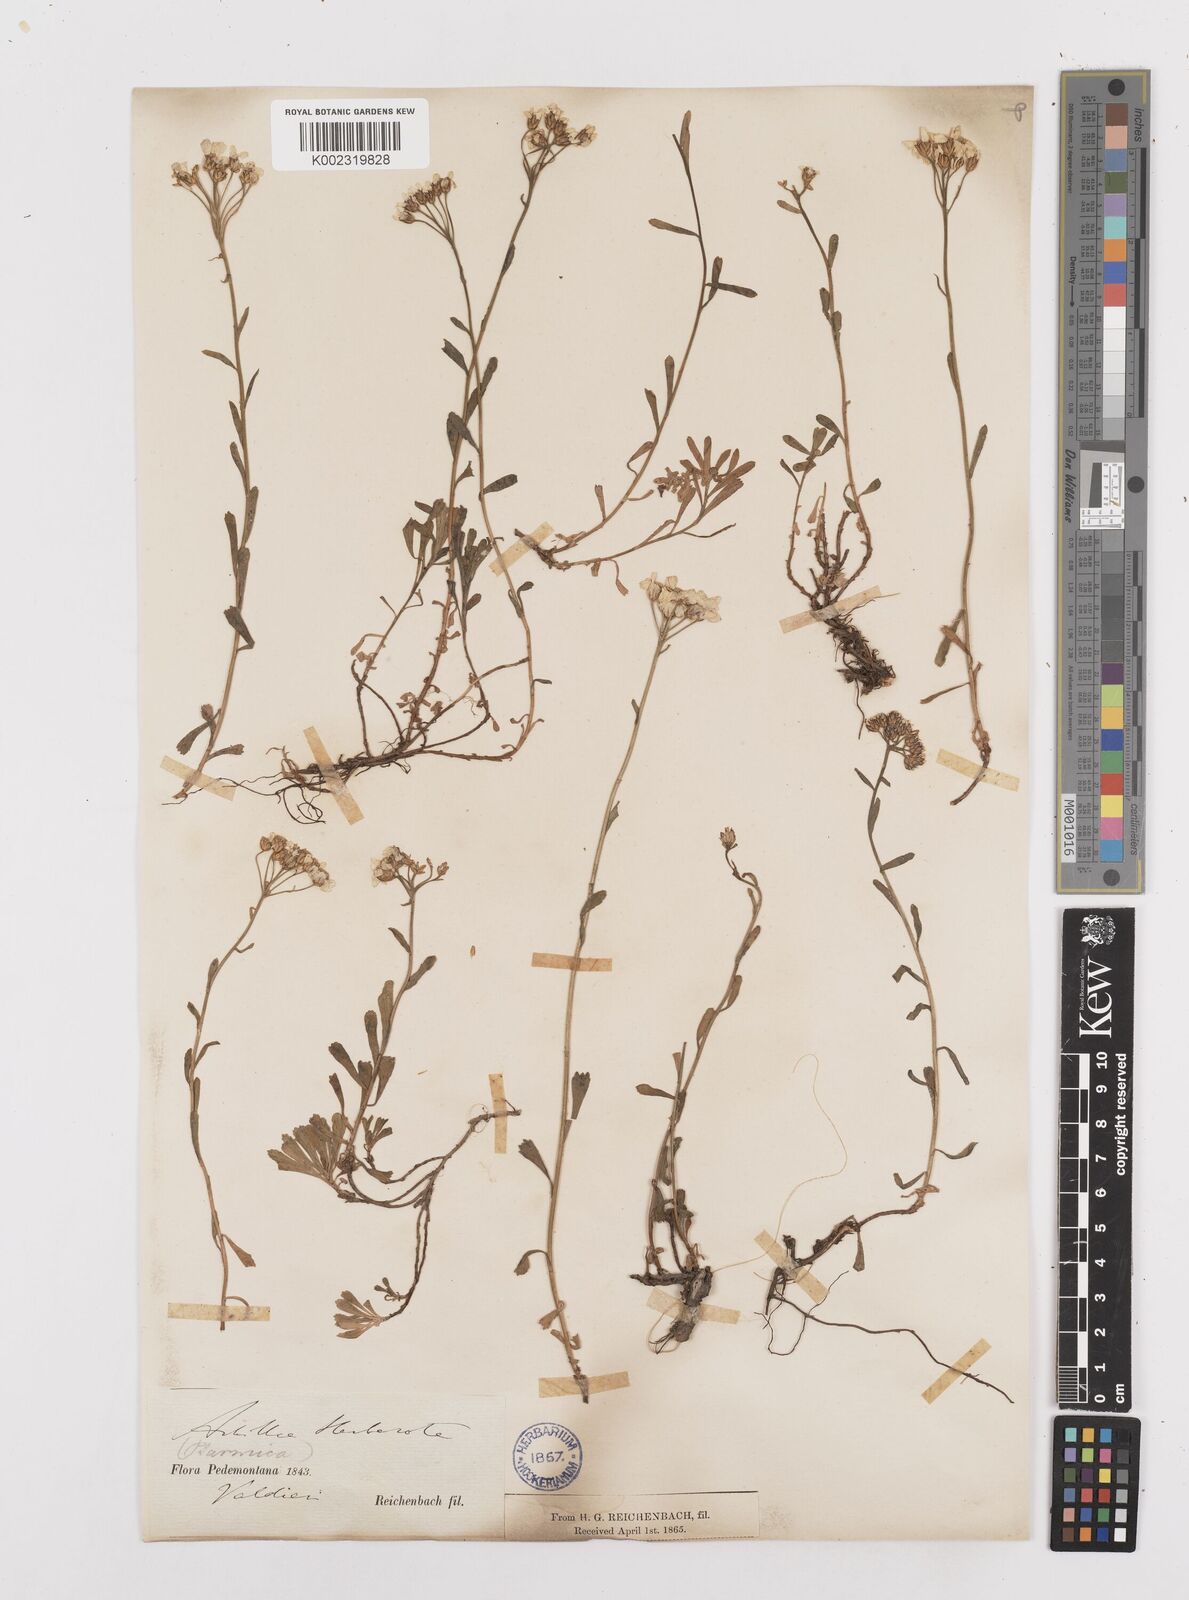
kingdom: Plantae
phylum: Tracheophyta
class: Magnoliopsida
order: Asterales
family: Asteraceae
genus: Achillea
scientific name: Achillea erba-rotta
